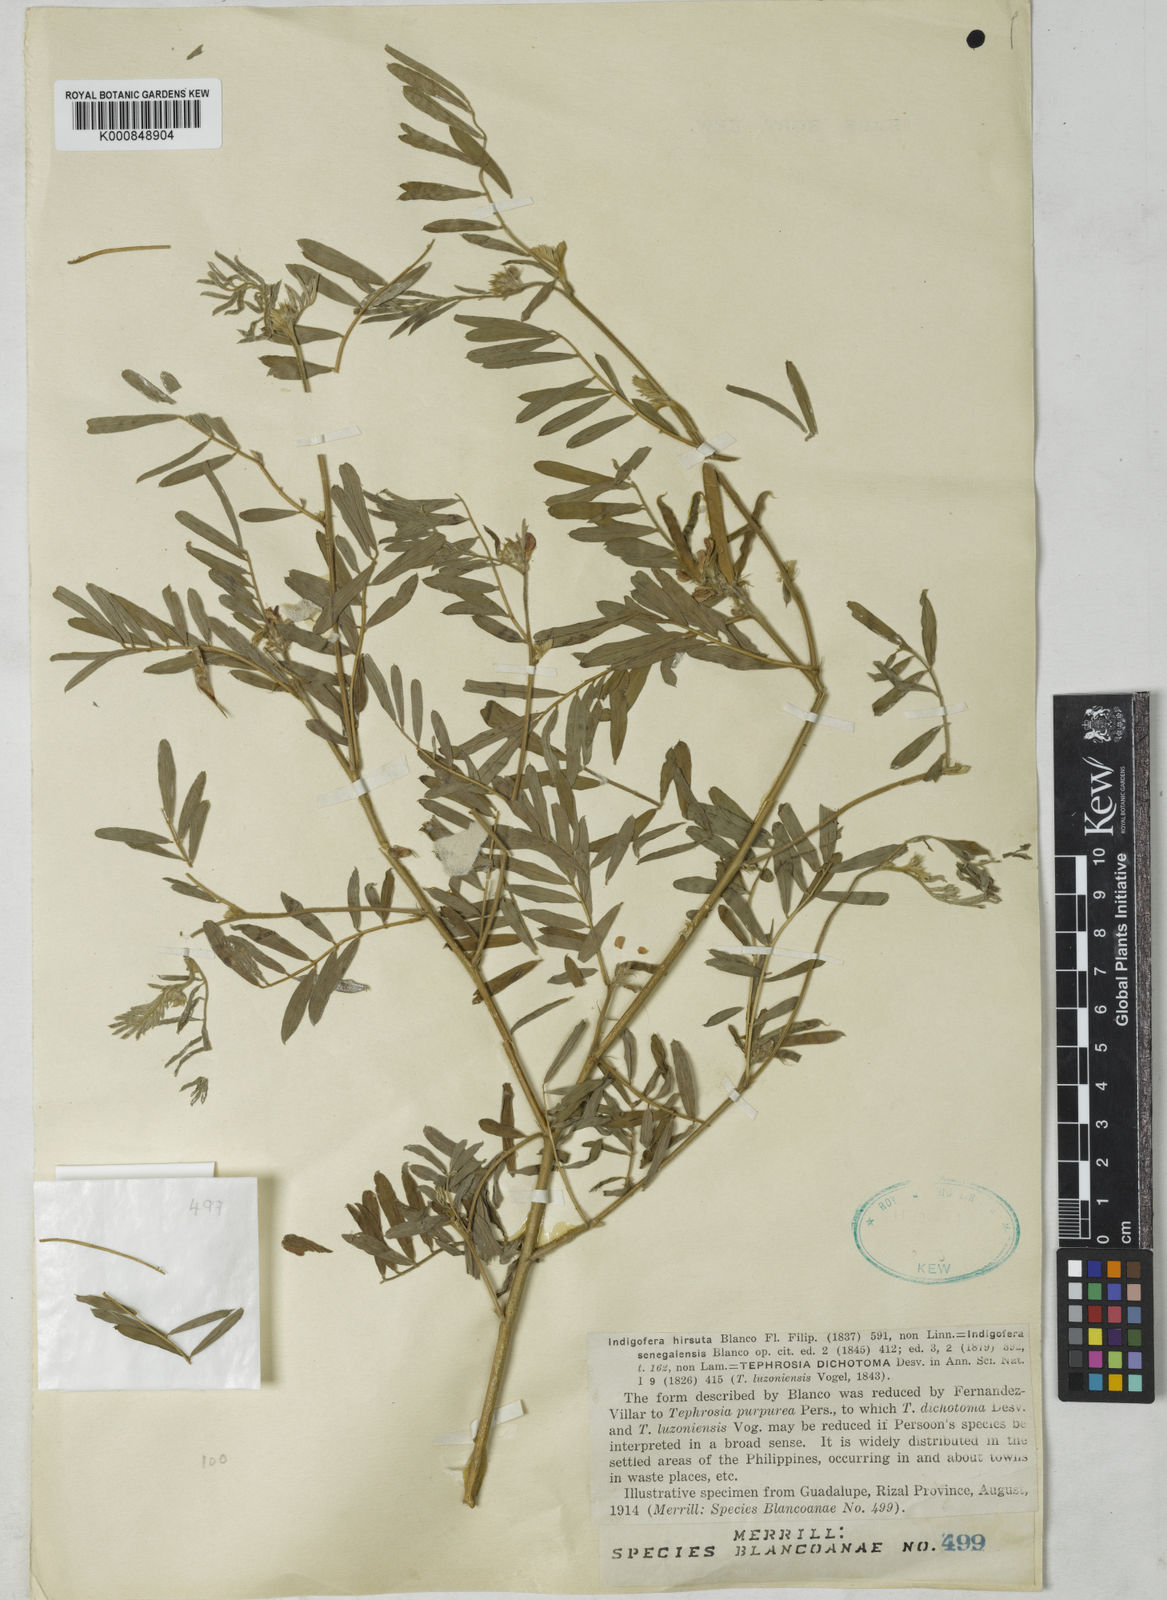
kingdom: Plantae
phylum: Tracheophyta
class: Magnoliopsida
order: Fabales
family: Fabaceae
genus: Tephrosia
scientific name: Tephrosia
